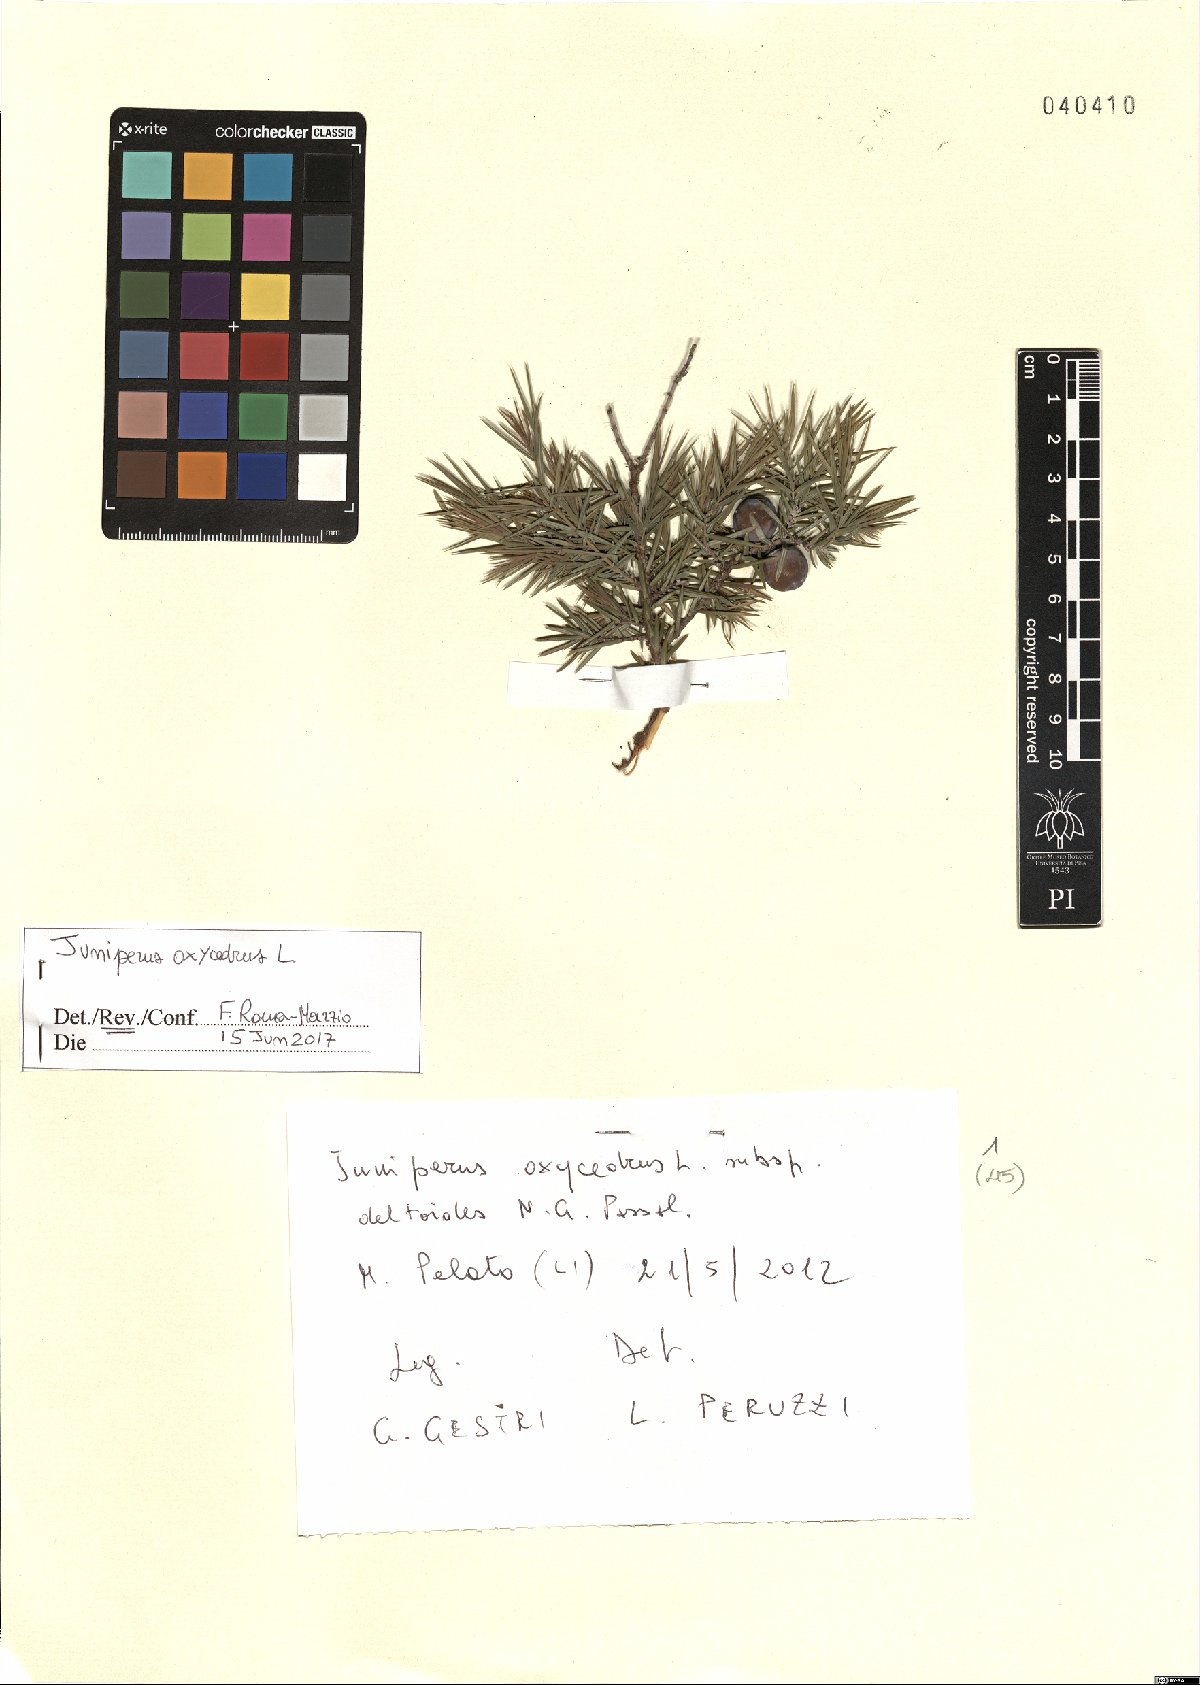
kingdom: Plantae
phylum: Tracheophyta
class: Pinopsida
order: Pinales
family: Cupressaceae
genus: Juniperus
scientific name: Juniperus oxycedrus
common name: Prickly juniper
